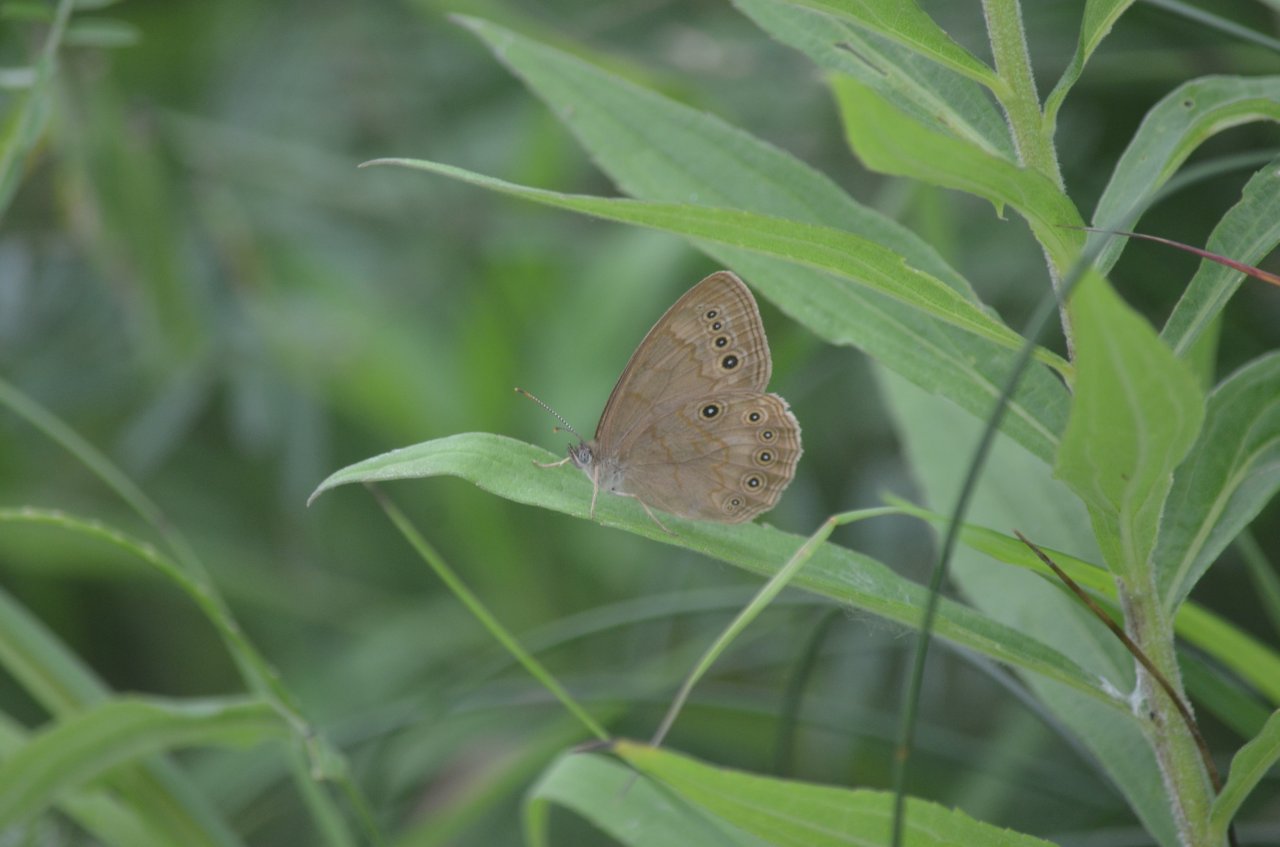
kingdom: Animalia
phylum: Arthropoda
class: Insecta
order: Lepidoptera
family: Nymphalidae
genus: Lethe
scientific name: Lethe eurydice
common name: Eyed Brown
